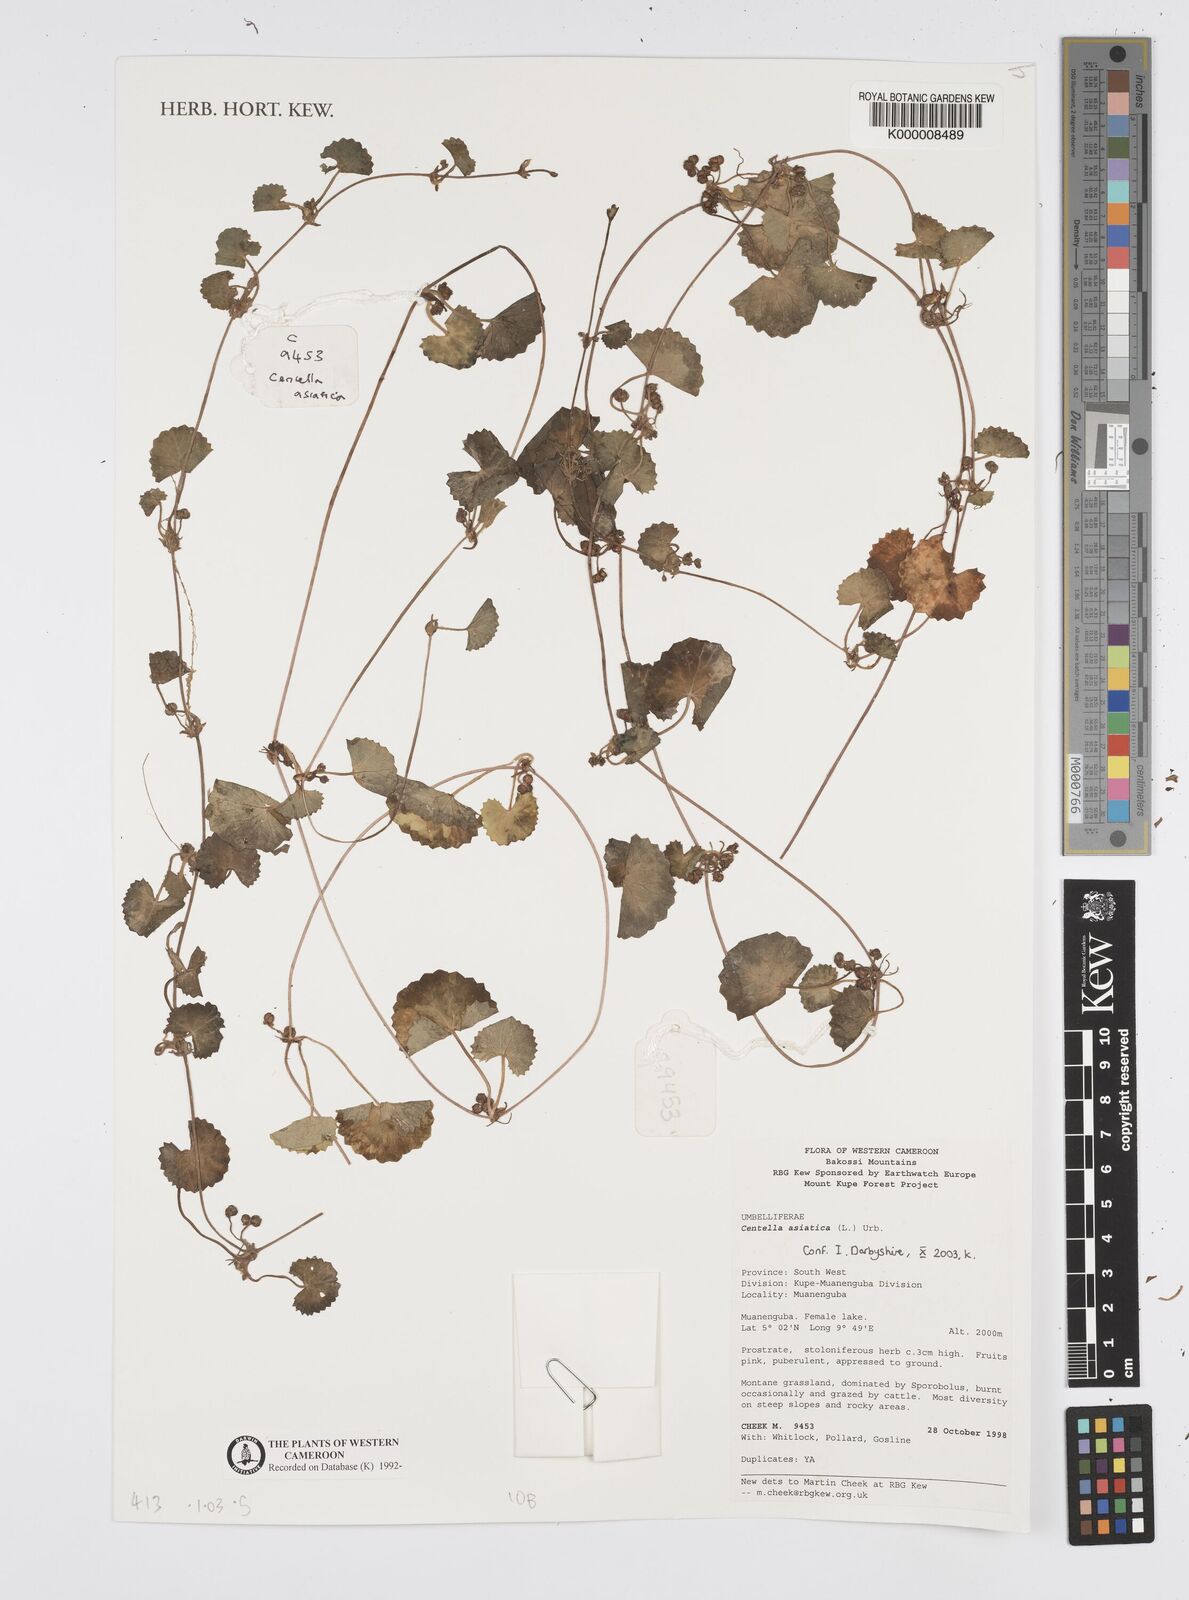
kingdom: Plantae
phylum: Tracheophyta
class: Magnoliopsida
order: Apiales
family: Apiaceae
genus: Centella
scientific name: Centella asiatica
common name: Spadeleaf
